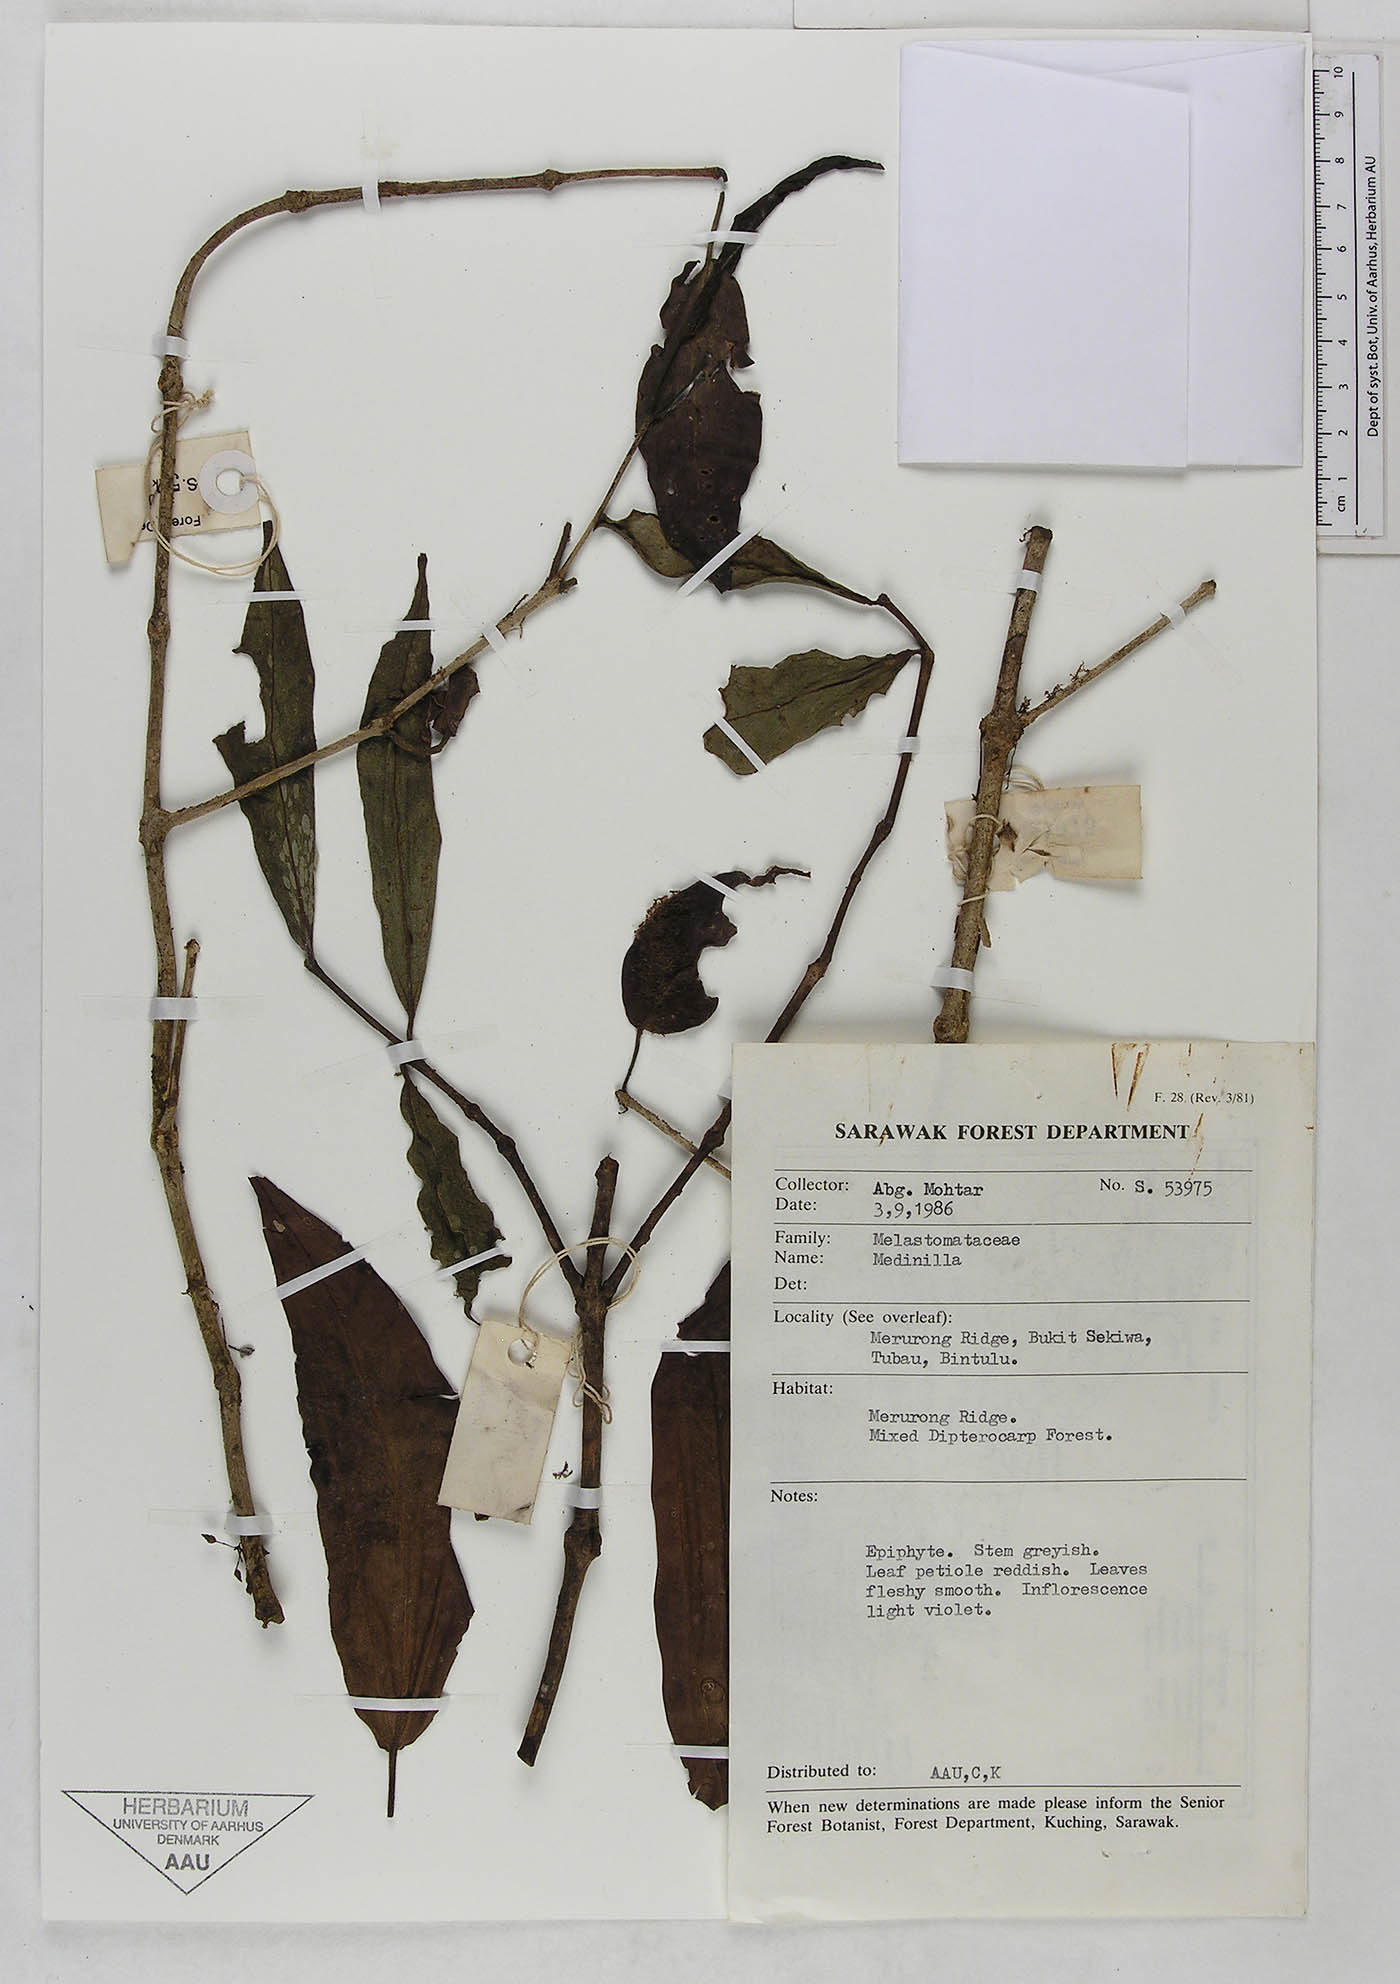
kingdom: Plantae
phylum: Tracheophyta
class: Magnoliopsida
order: Myrtales
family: Melastomataceae
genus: Medinilla
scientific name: Medinilla
